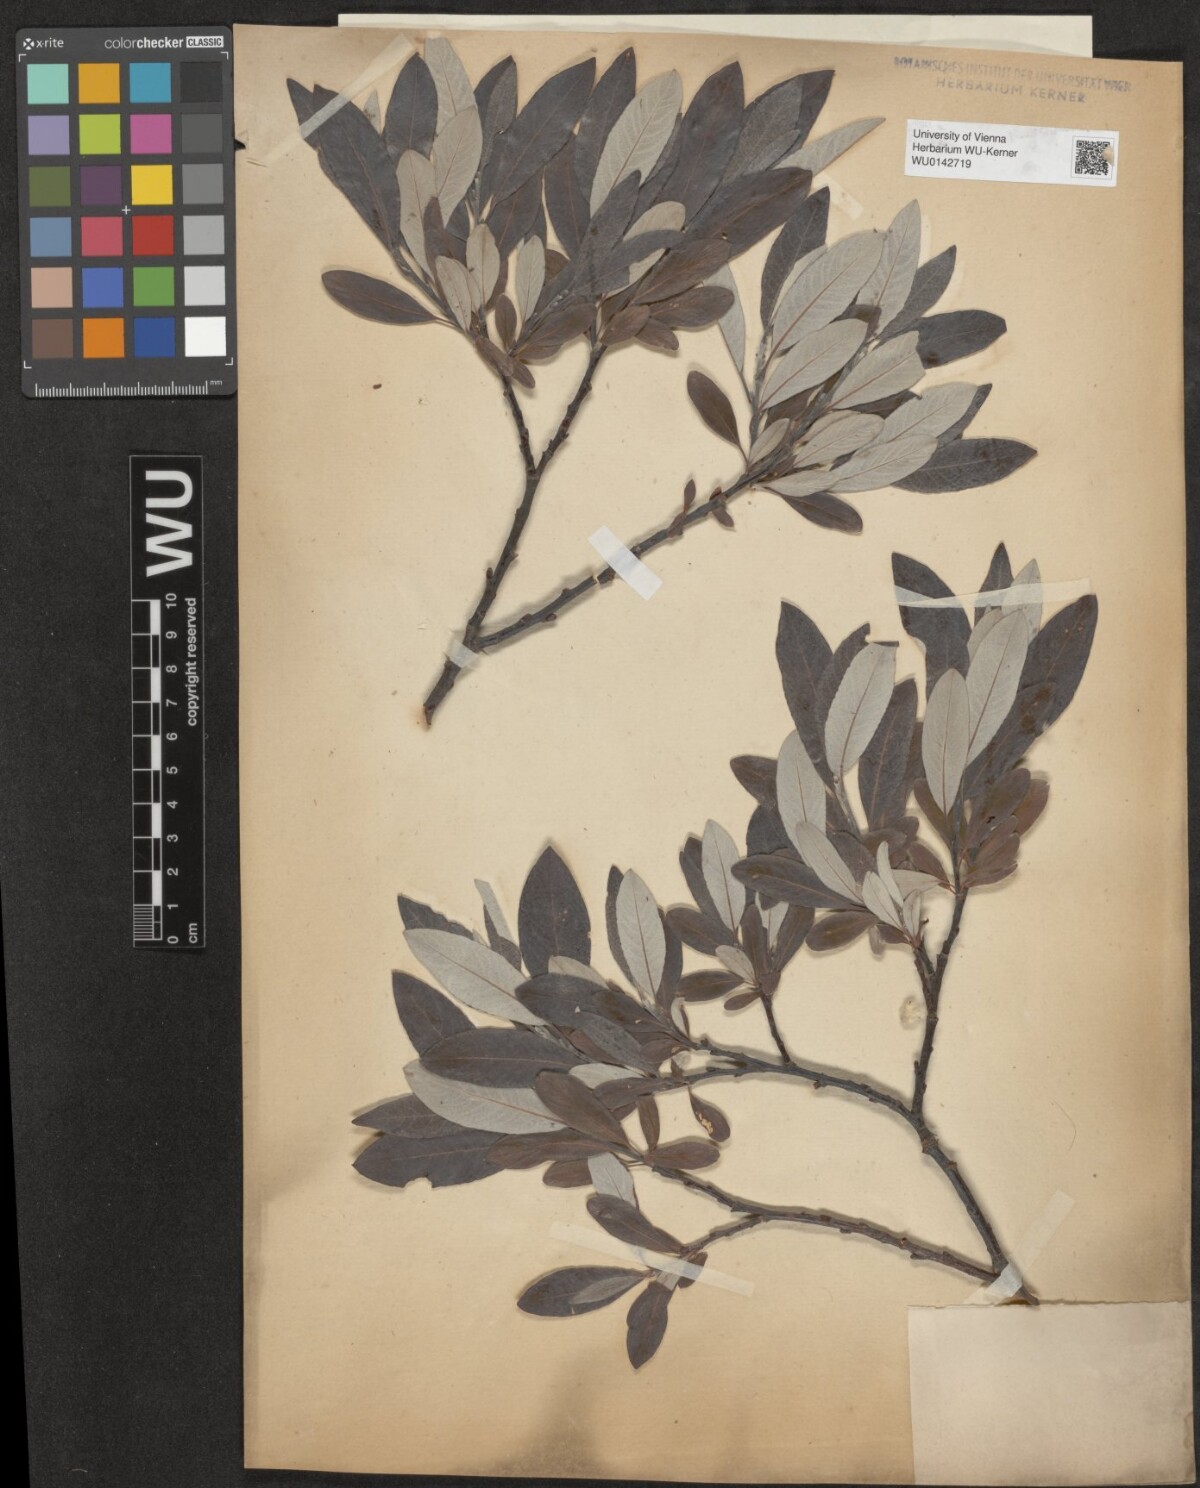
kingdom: Plantae
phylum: Tracheophyta
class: Magnoliopsida
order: Malpighiales
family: Salicaceae
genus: Salix
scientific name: Salix helvetica
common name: Swiss willow
